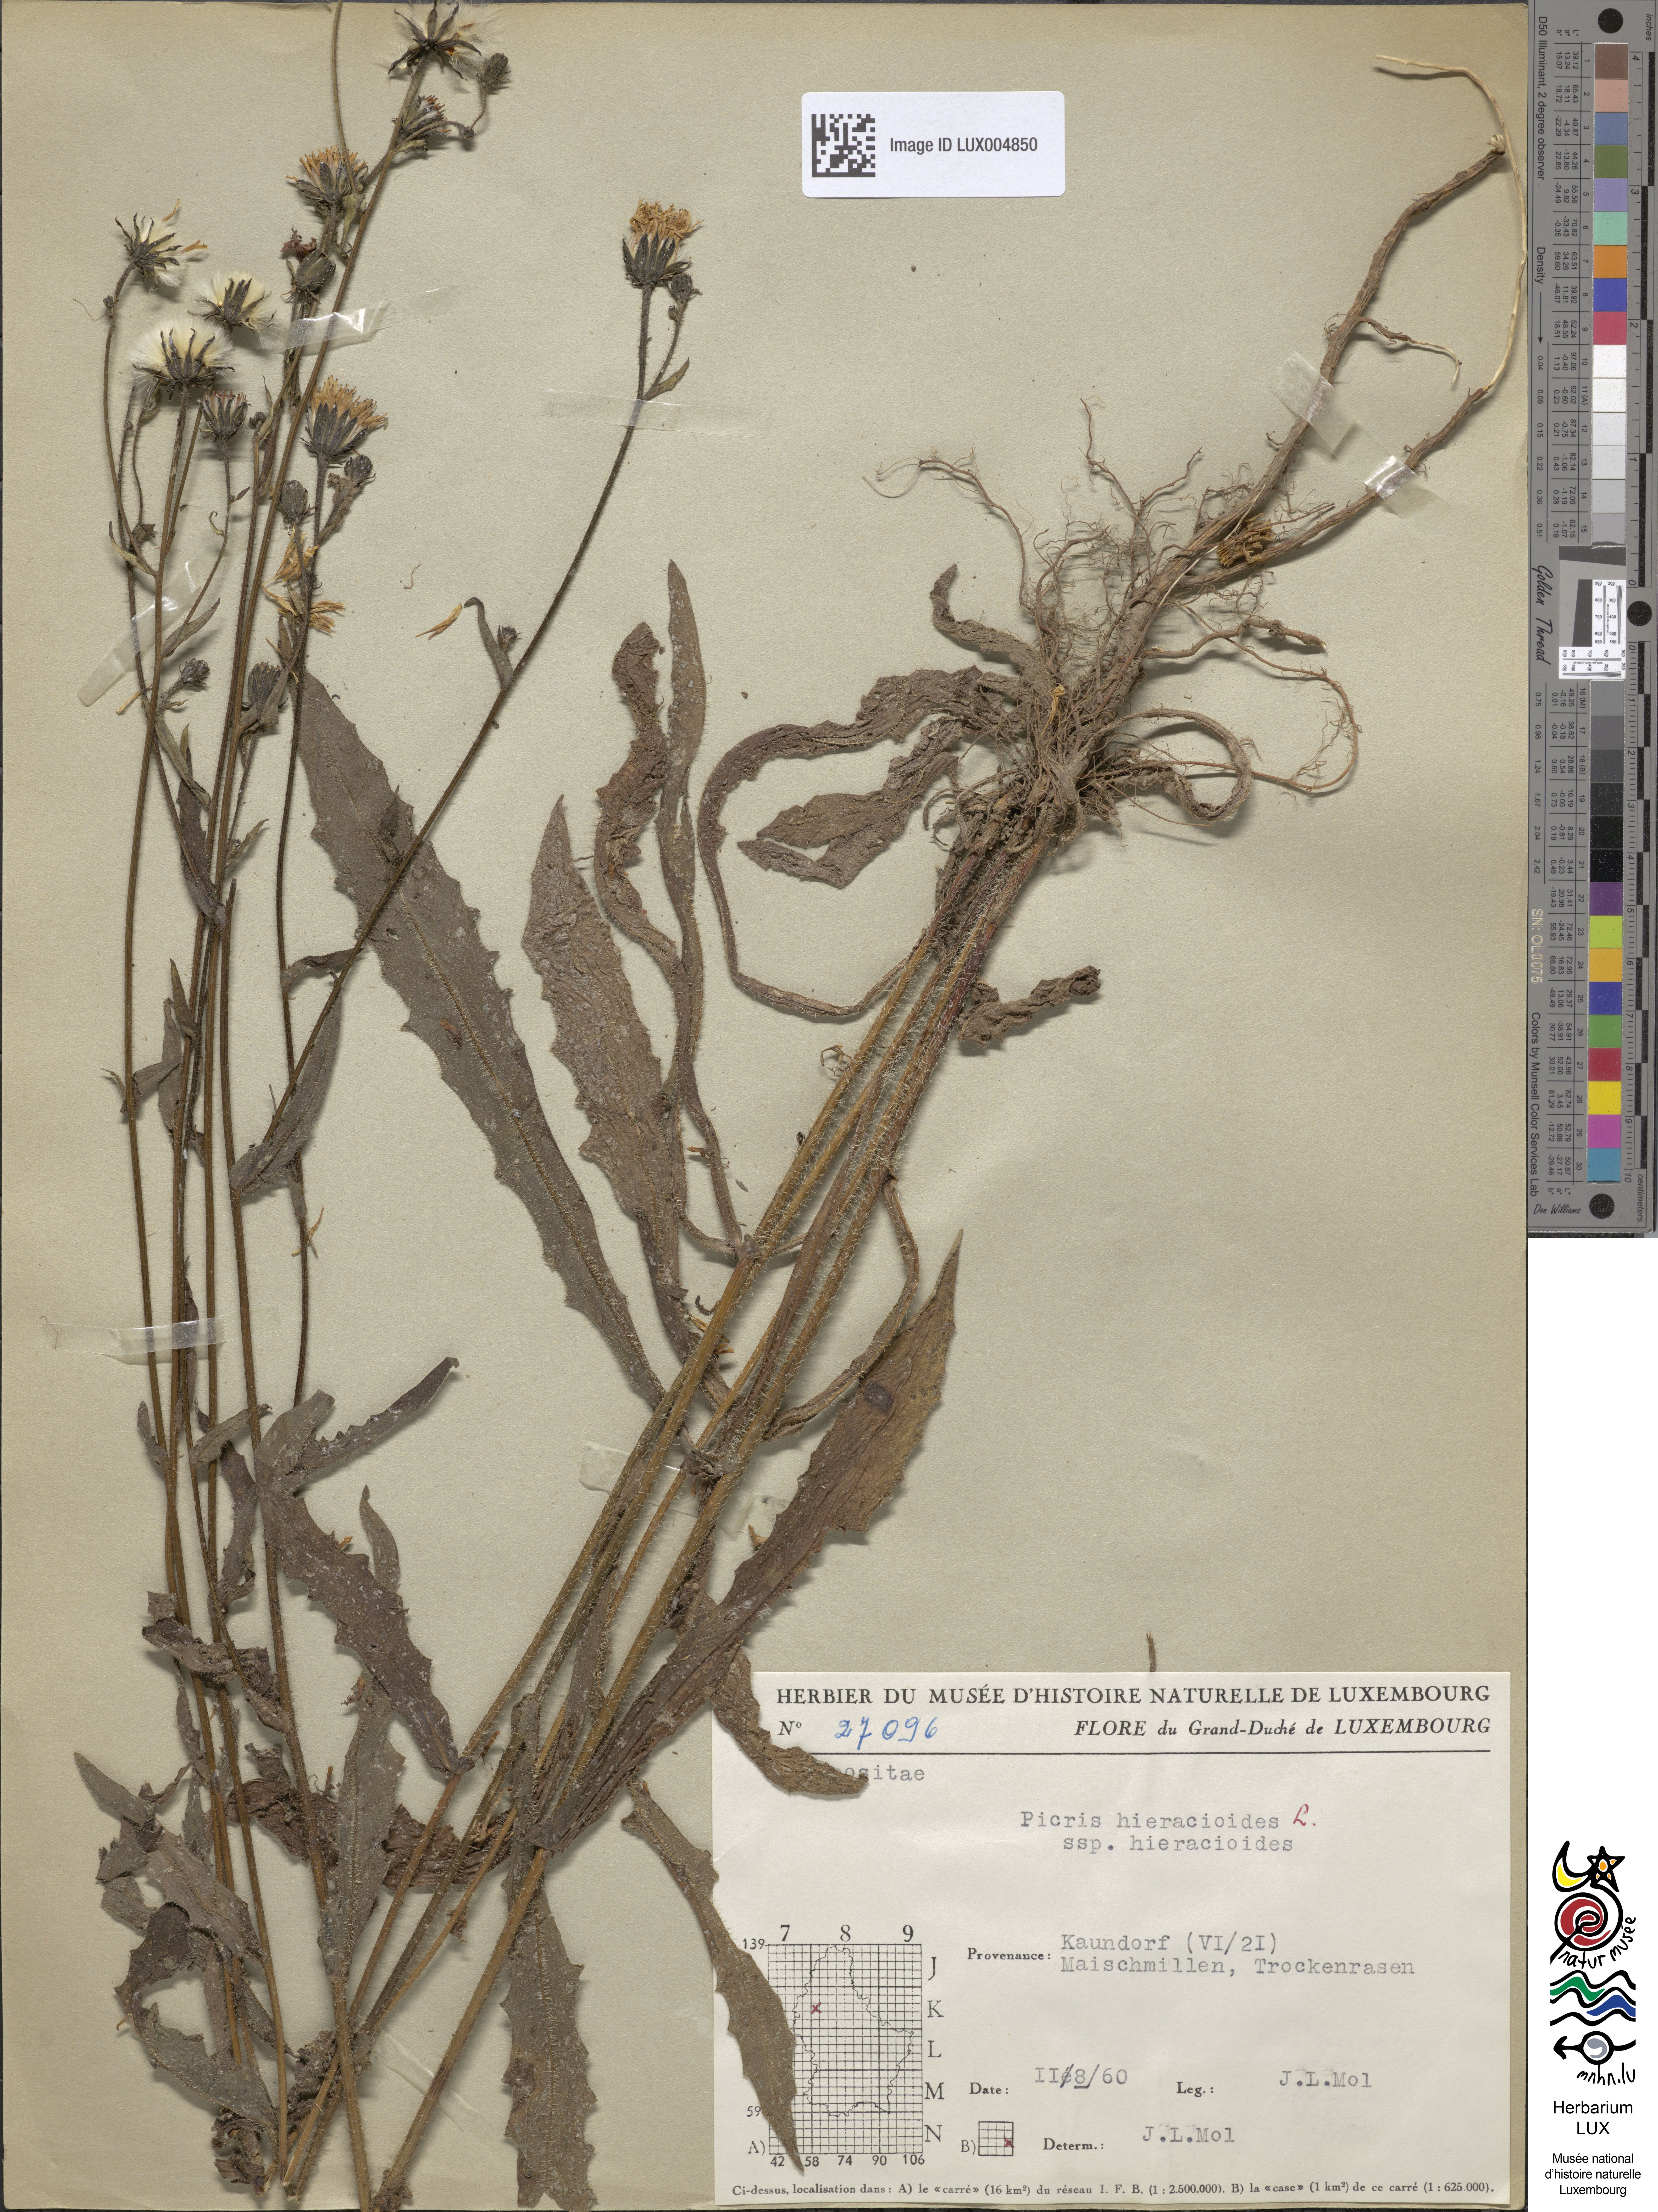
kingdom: Plantae
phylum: Tracheophyta
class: Magnoliopsida
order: Asterales
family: Asteraceae
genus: Picris
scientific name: Picris hieracioides
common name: Hawkweed oxtongue
